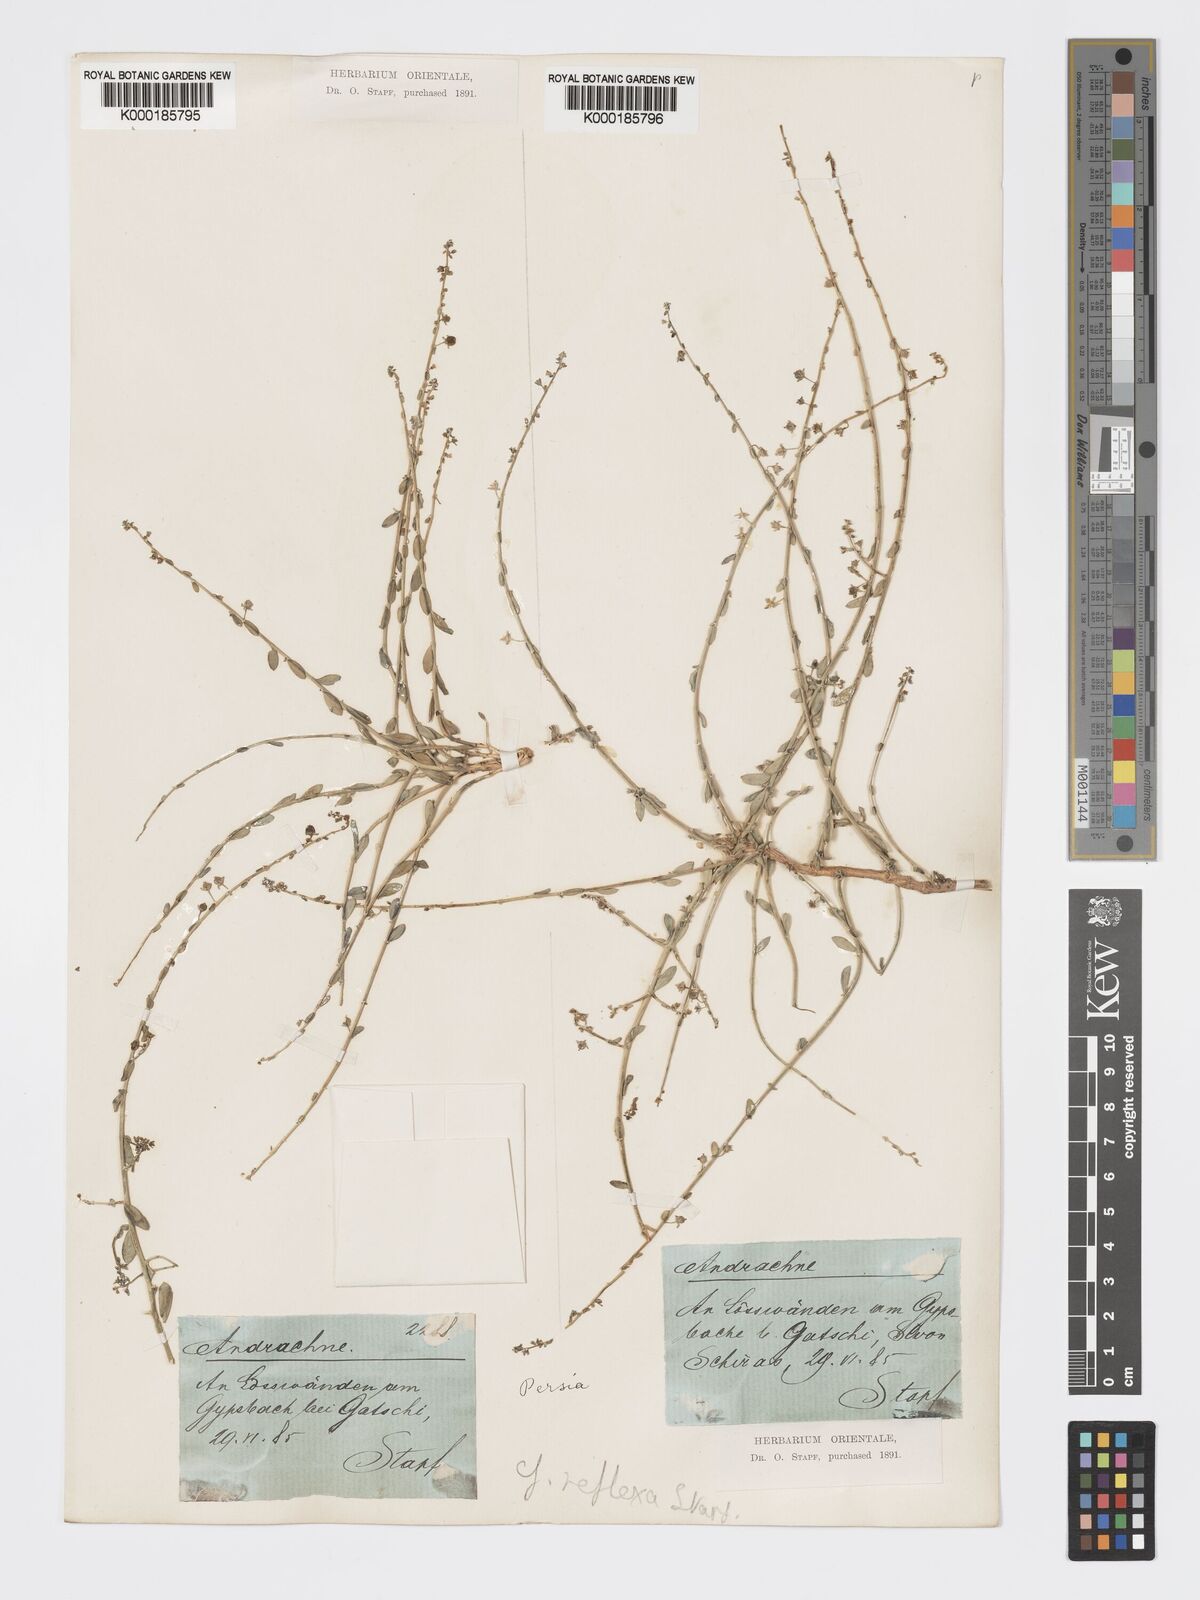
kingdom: Plantae
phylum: Tracheophyta
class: Magnoliopsida
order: Malpighiales
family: Phyllanthaceae
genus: Andrachne
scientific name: Andrachne reflexa
